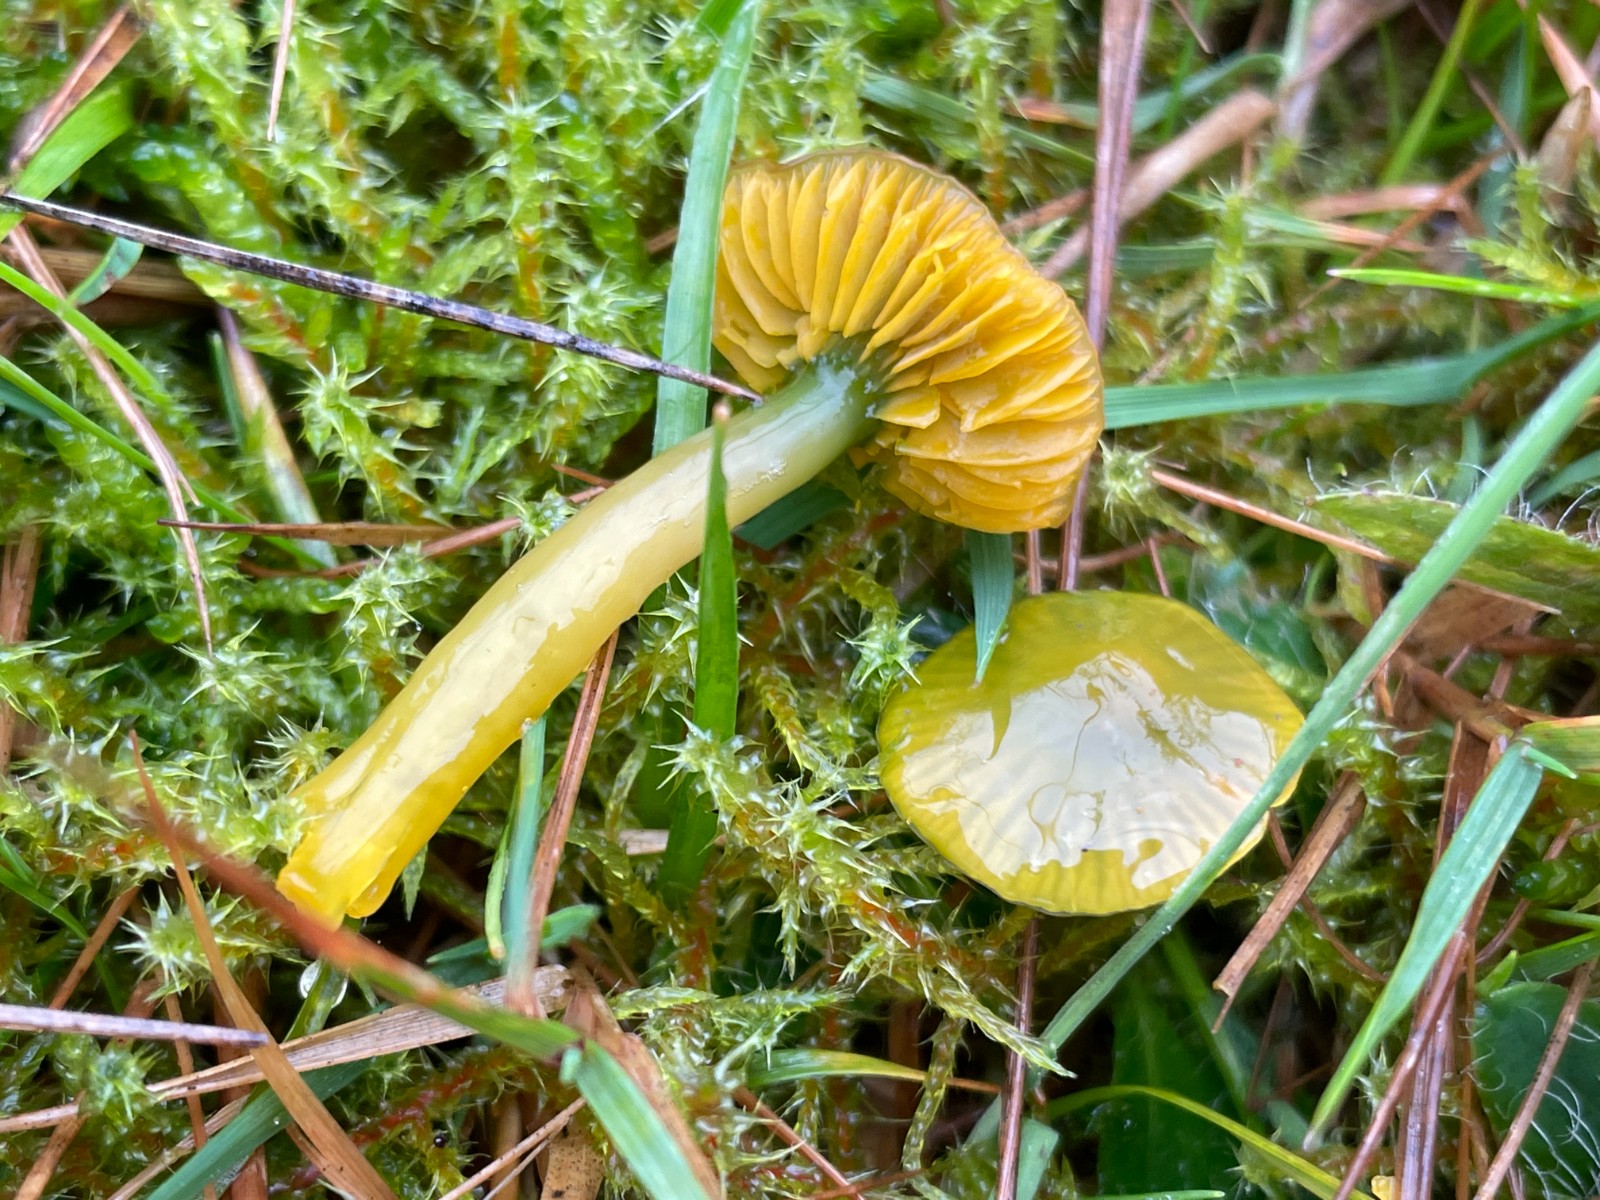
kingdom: Fungi
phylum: Basidiomycota
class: Agaricomycetes
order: Agaricales
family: Hygrophoraceae
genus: Gliophorus
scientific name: Gliophorus psittacinus
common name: papegøje-vokshat
